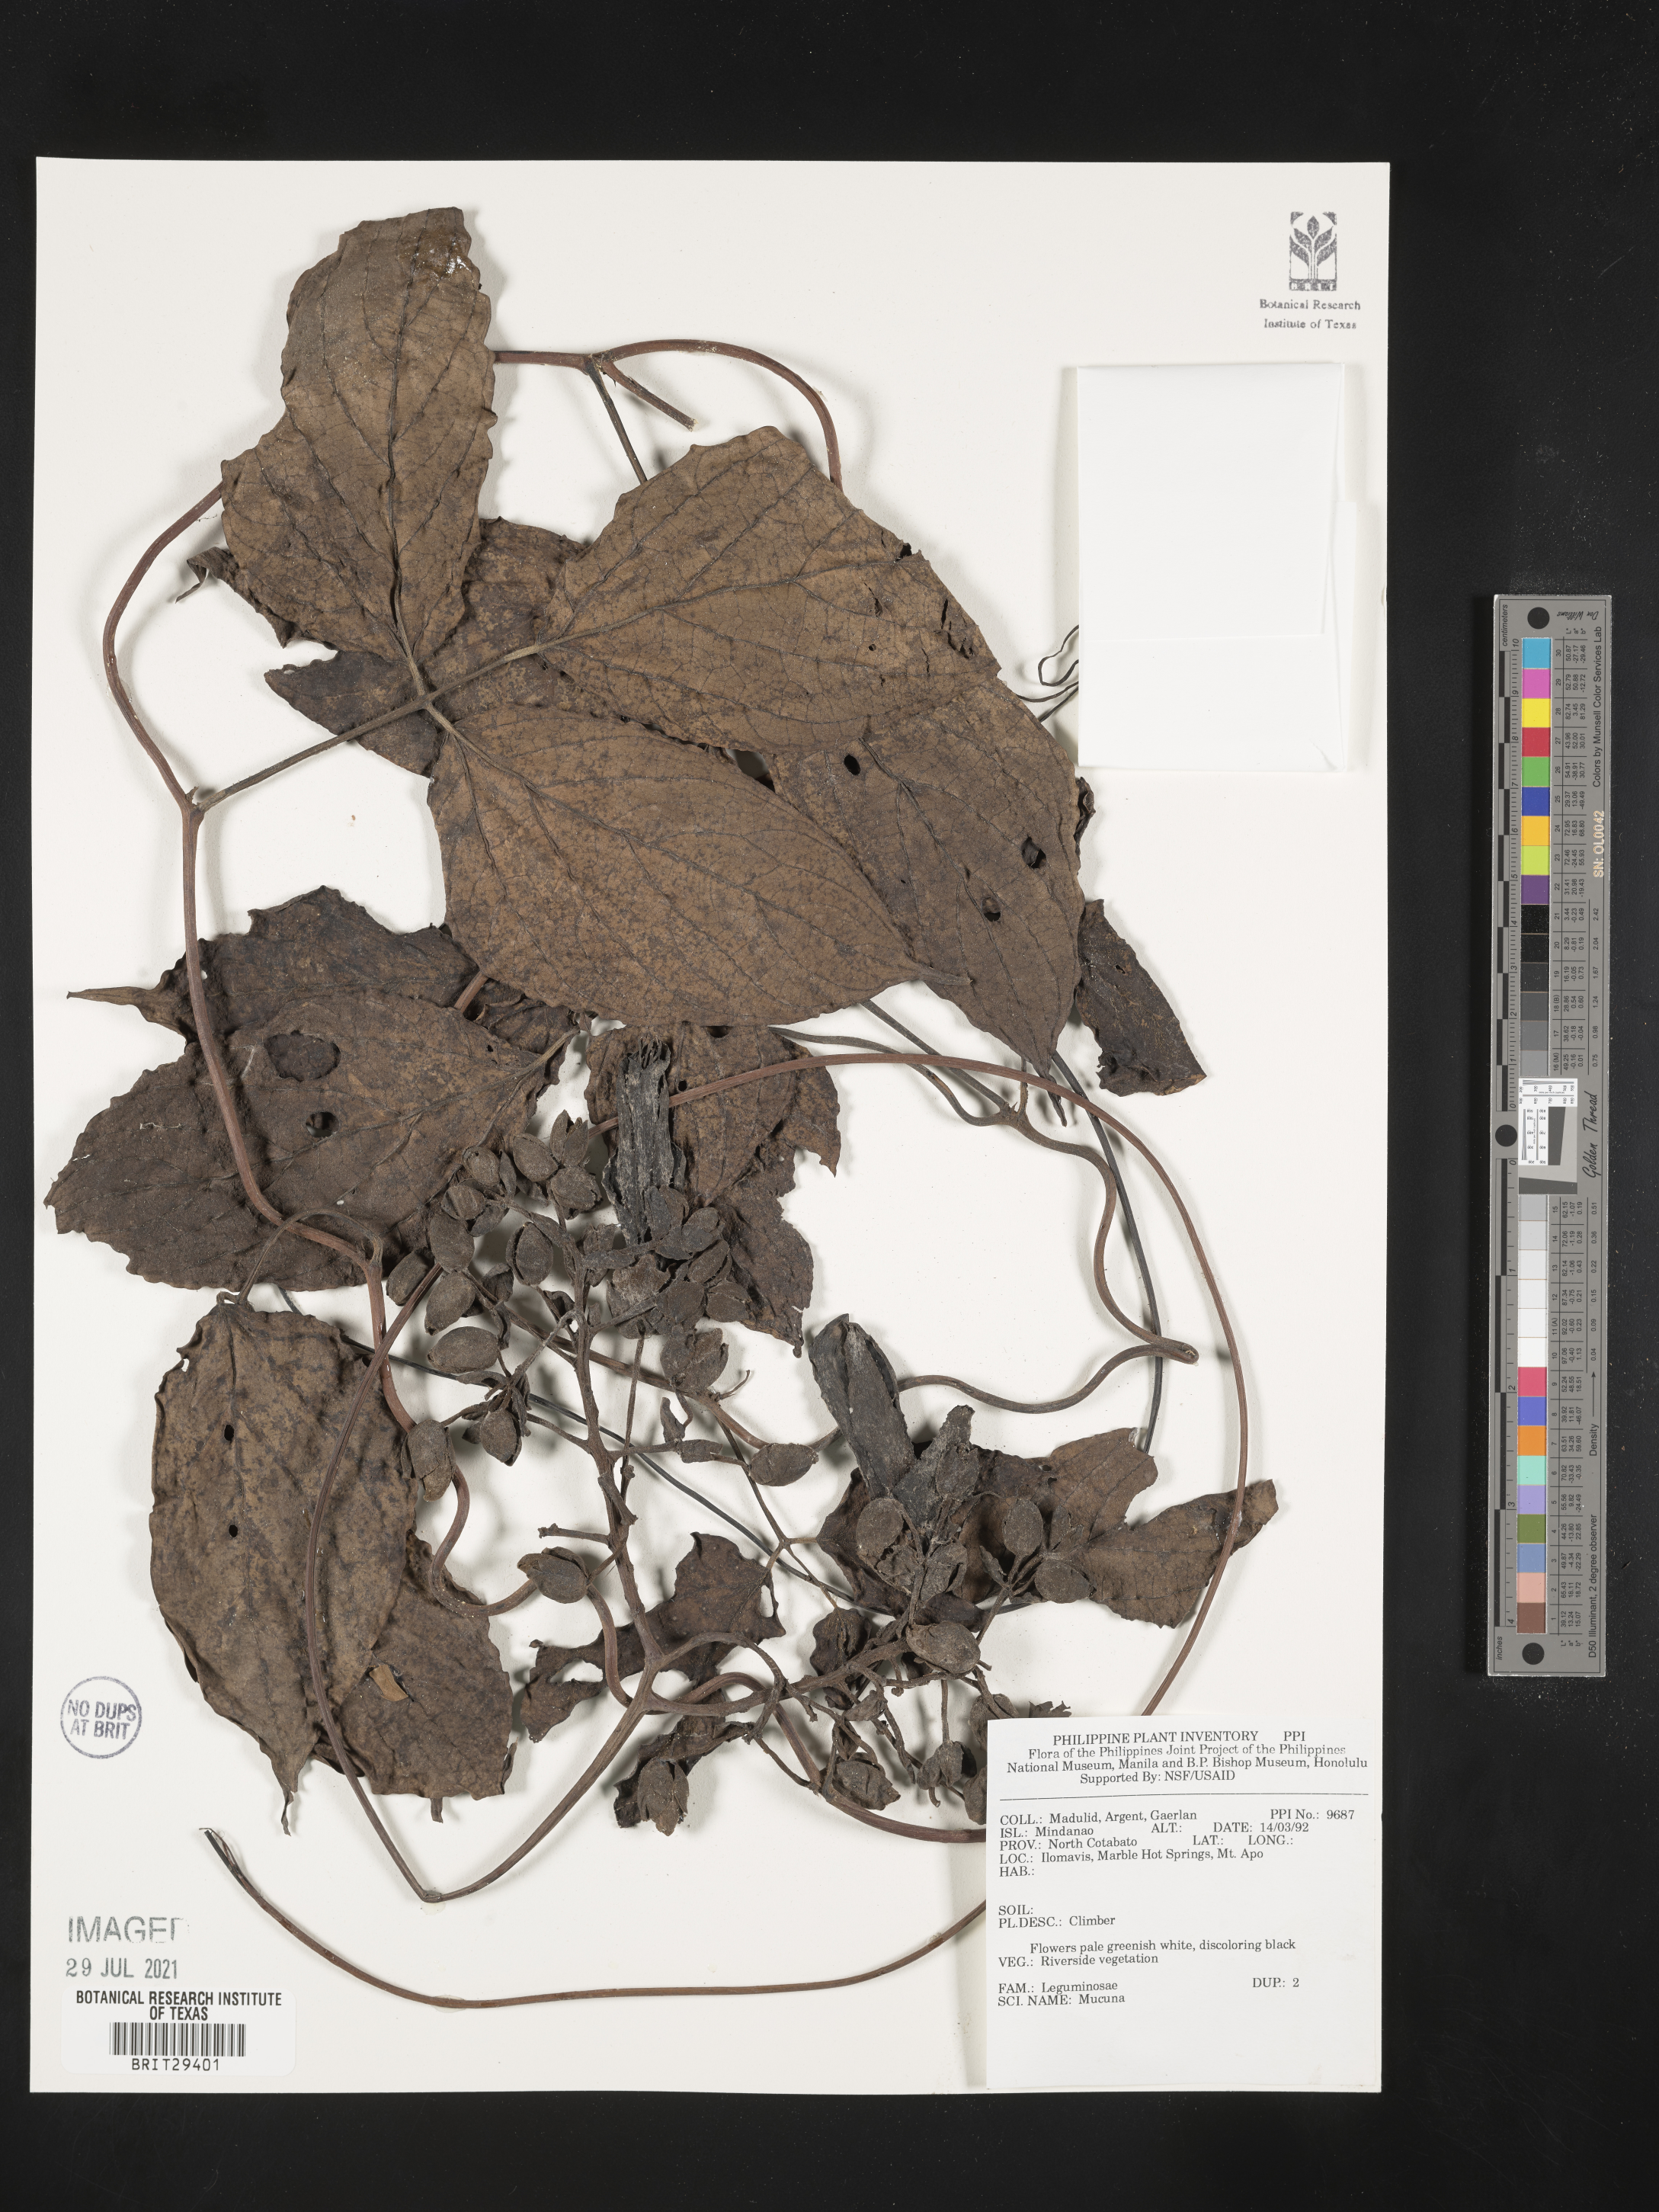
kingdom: Plantae
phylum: Tracheophyta
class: Magnoliopsida
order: Fabales
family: Fabaceae
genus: Mucuna
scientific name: Mucuna
